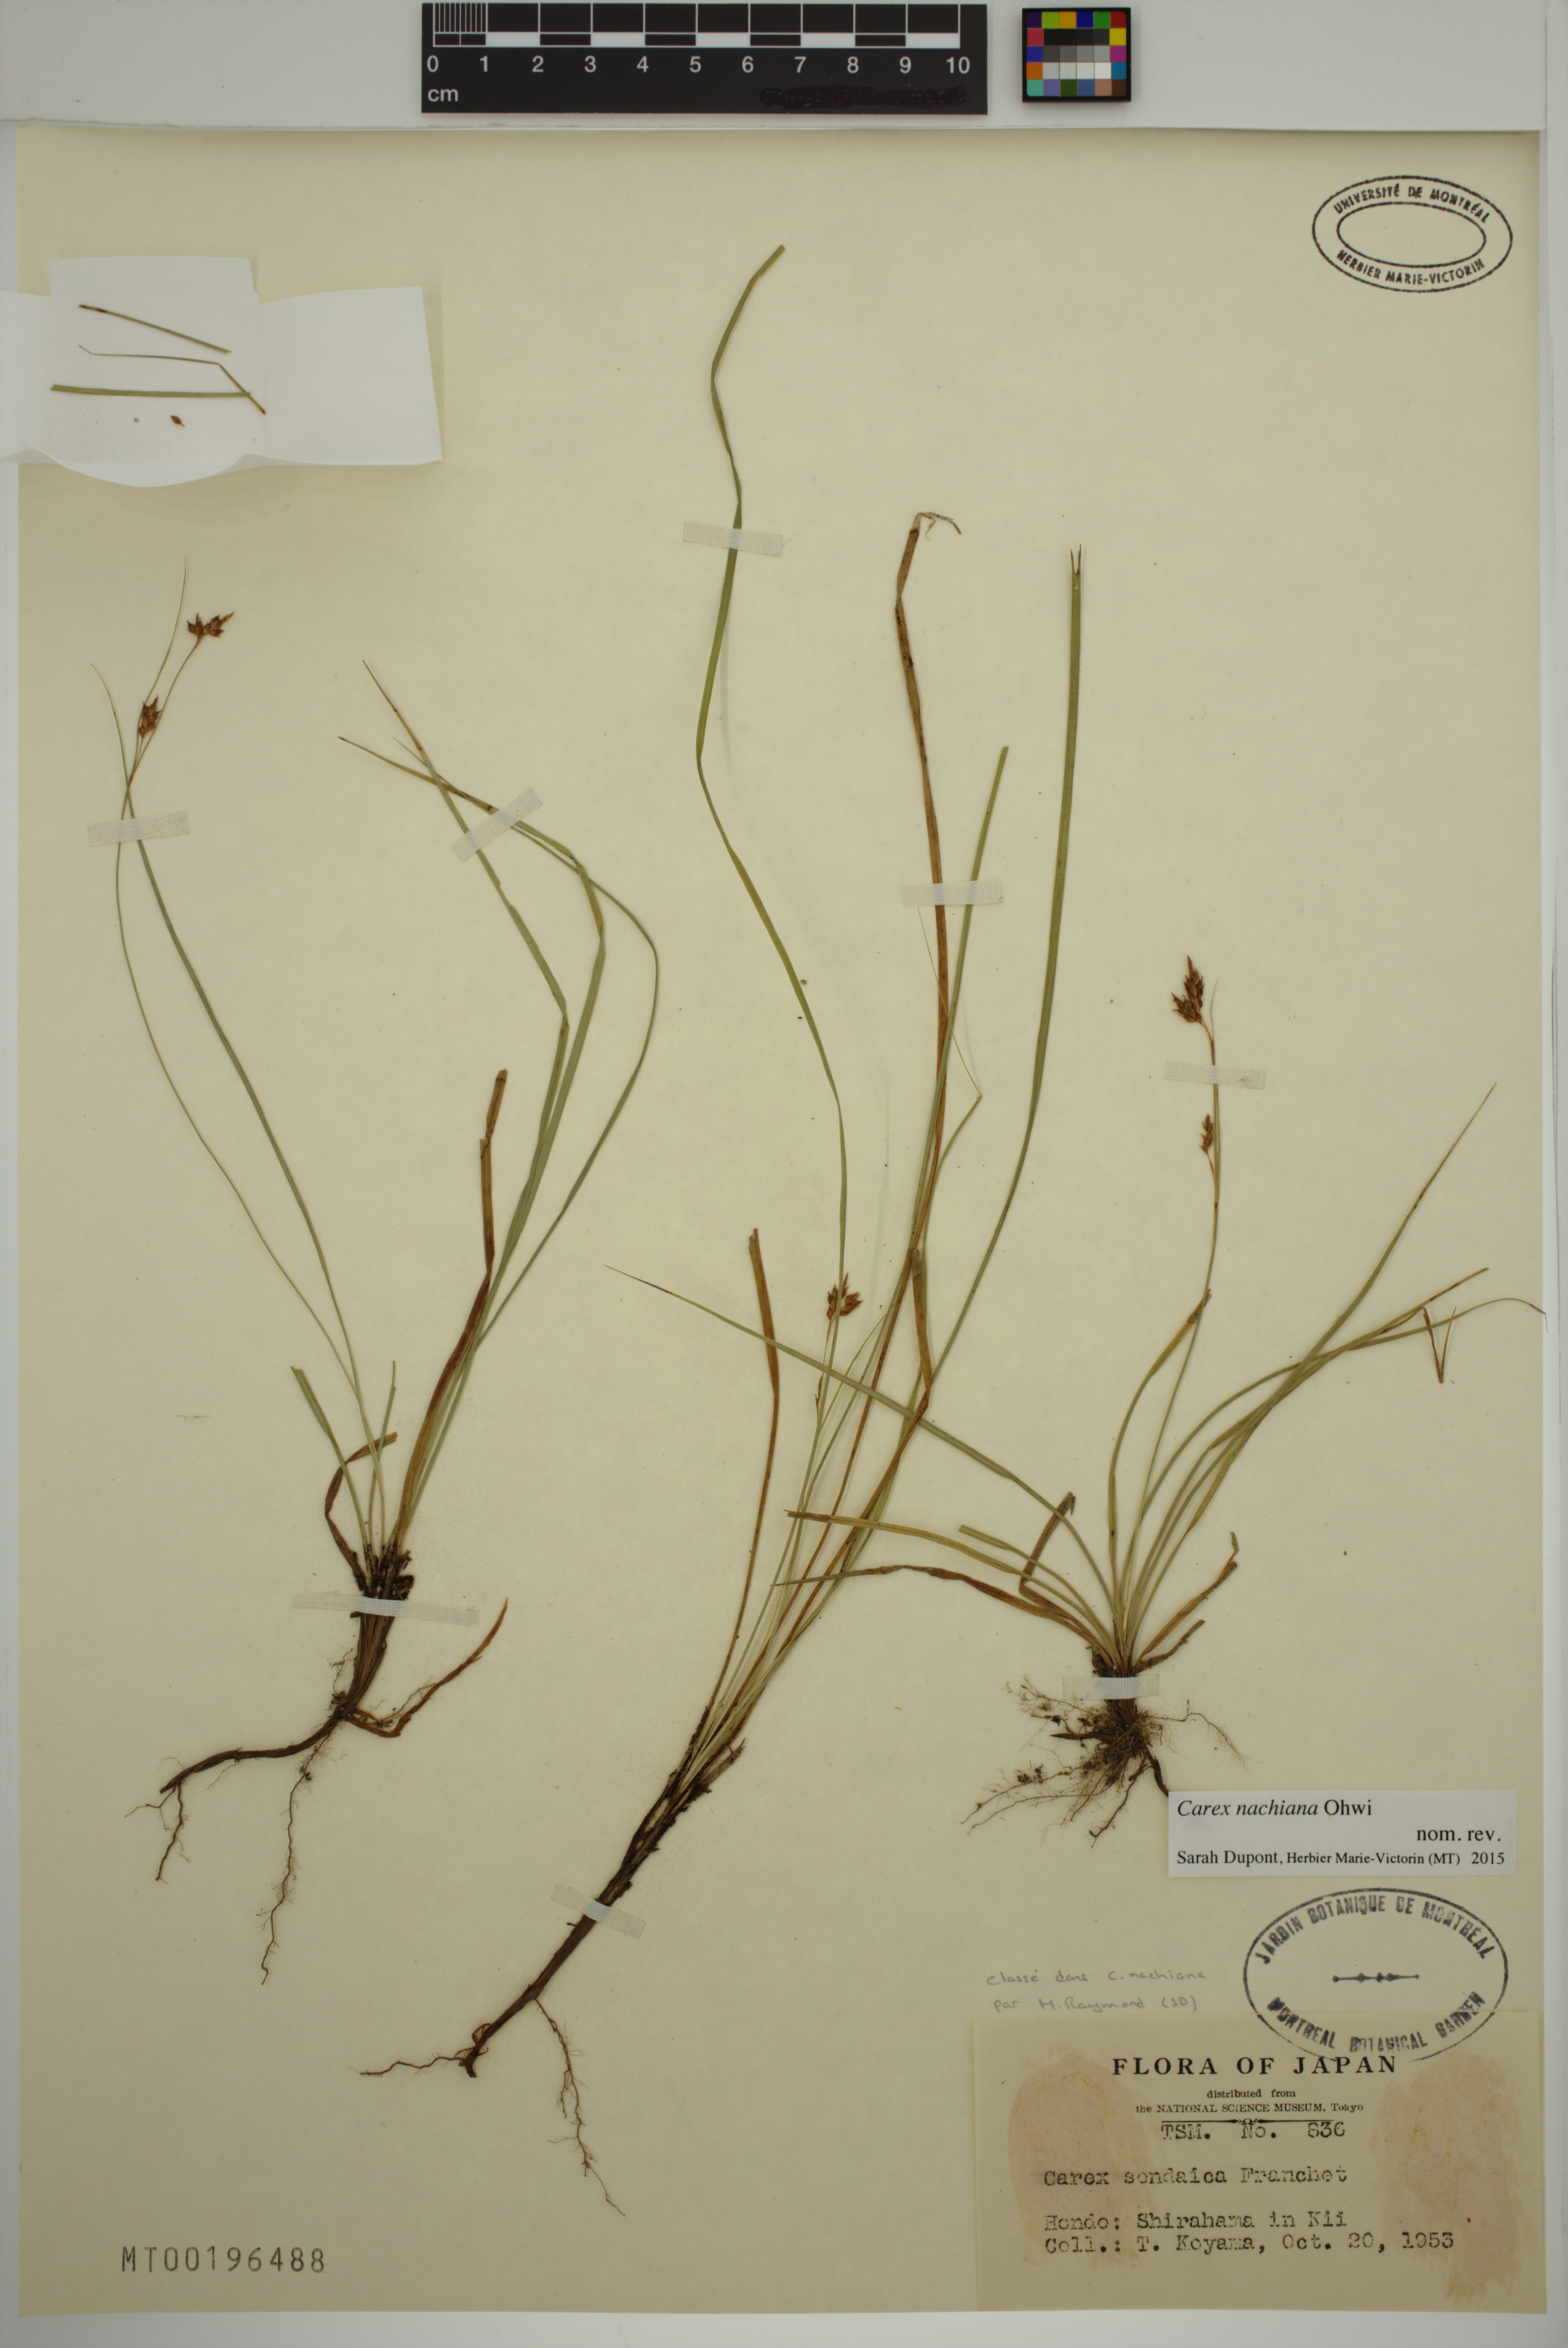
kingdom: Plantae
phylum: Tracheophyta
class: Liliopsida
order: Poales
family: Cyperaceae
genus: Carex
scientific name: Carex nachiana
